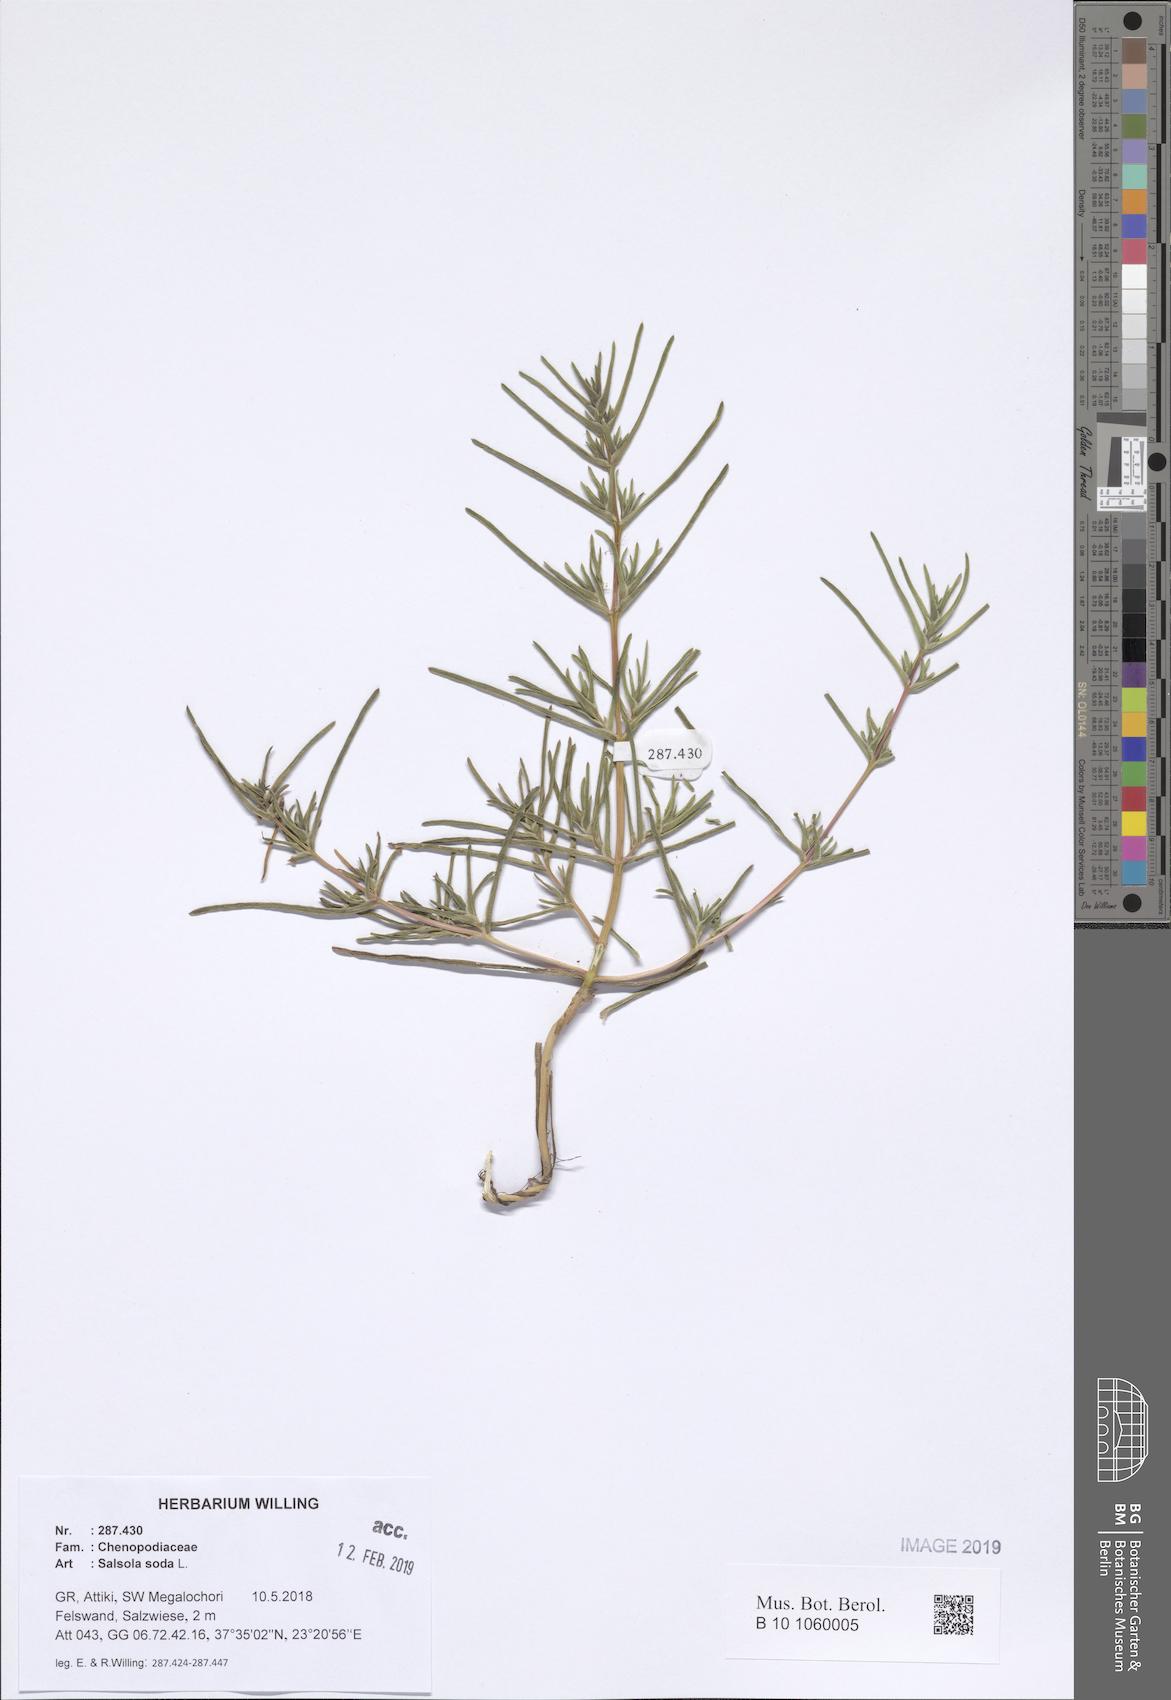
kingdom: Plantae
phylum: Tracheophyta
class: Magnoliopsida
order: Caryophyllales
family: Amaranthaceae
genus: Soda
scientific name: Soda inermis
